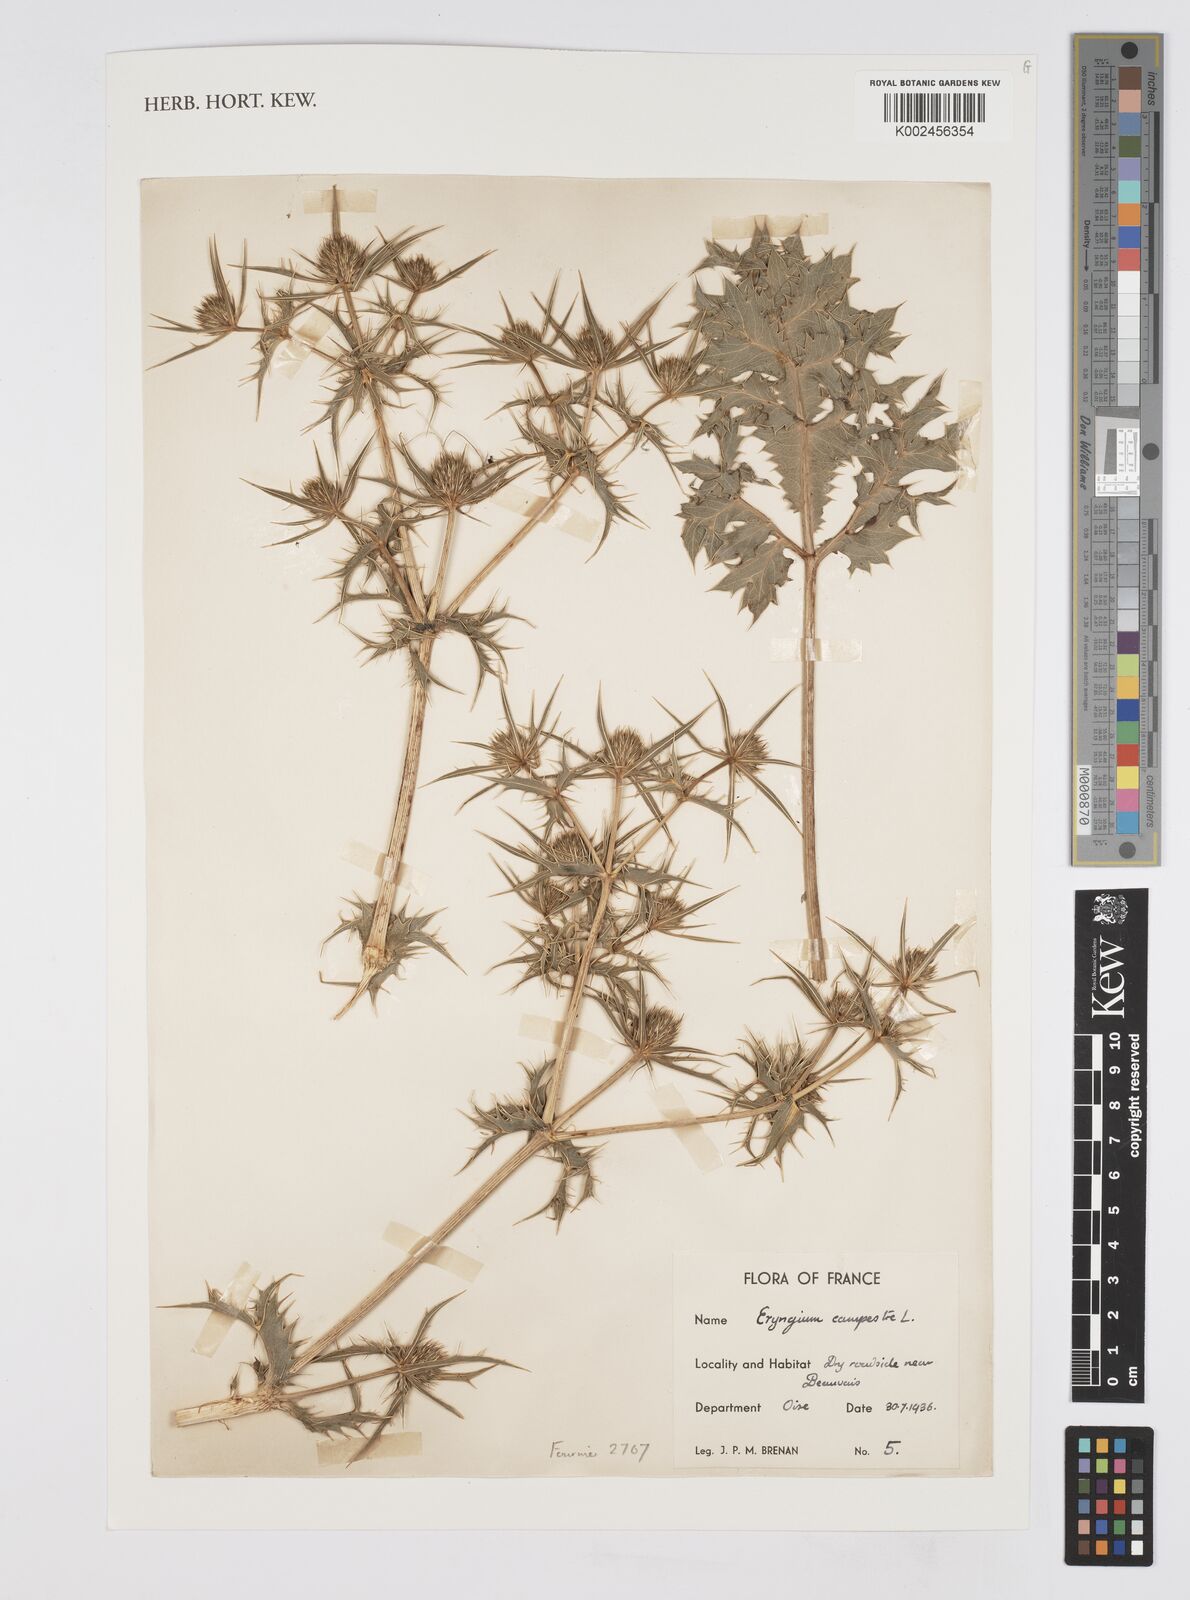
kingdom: Plantae
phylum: Tracheophyta
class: Magnoliopsida
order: Apiales
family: Apiaceae
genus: Eryngium
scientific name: Eryngium campestre
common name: Field eryngo
